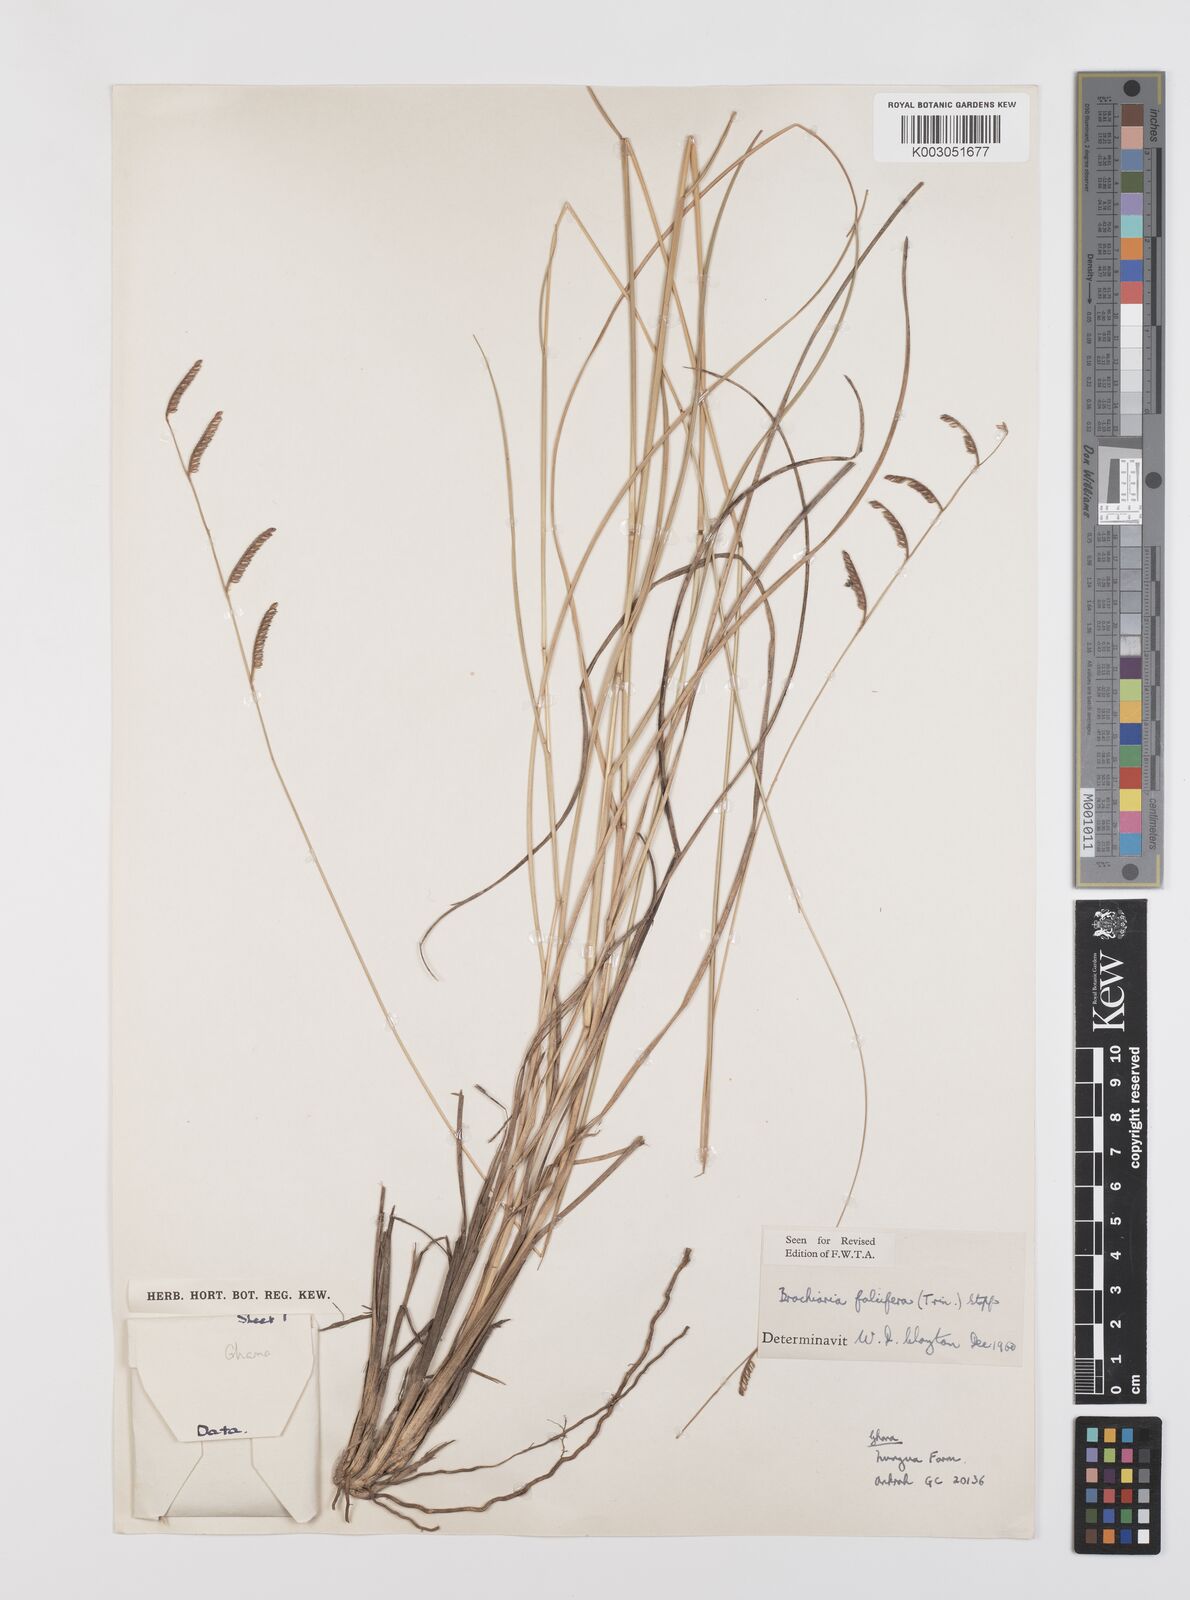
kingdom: Plantae
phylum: Tracheophyta
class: Liliopsida
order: Poales
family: Poaceae
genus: Urochloa
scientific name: Urochloa falcifera
